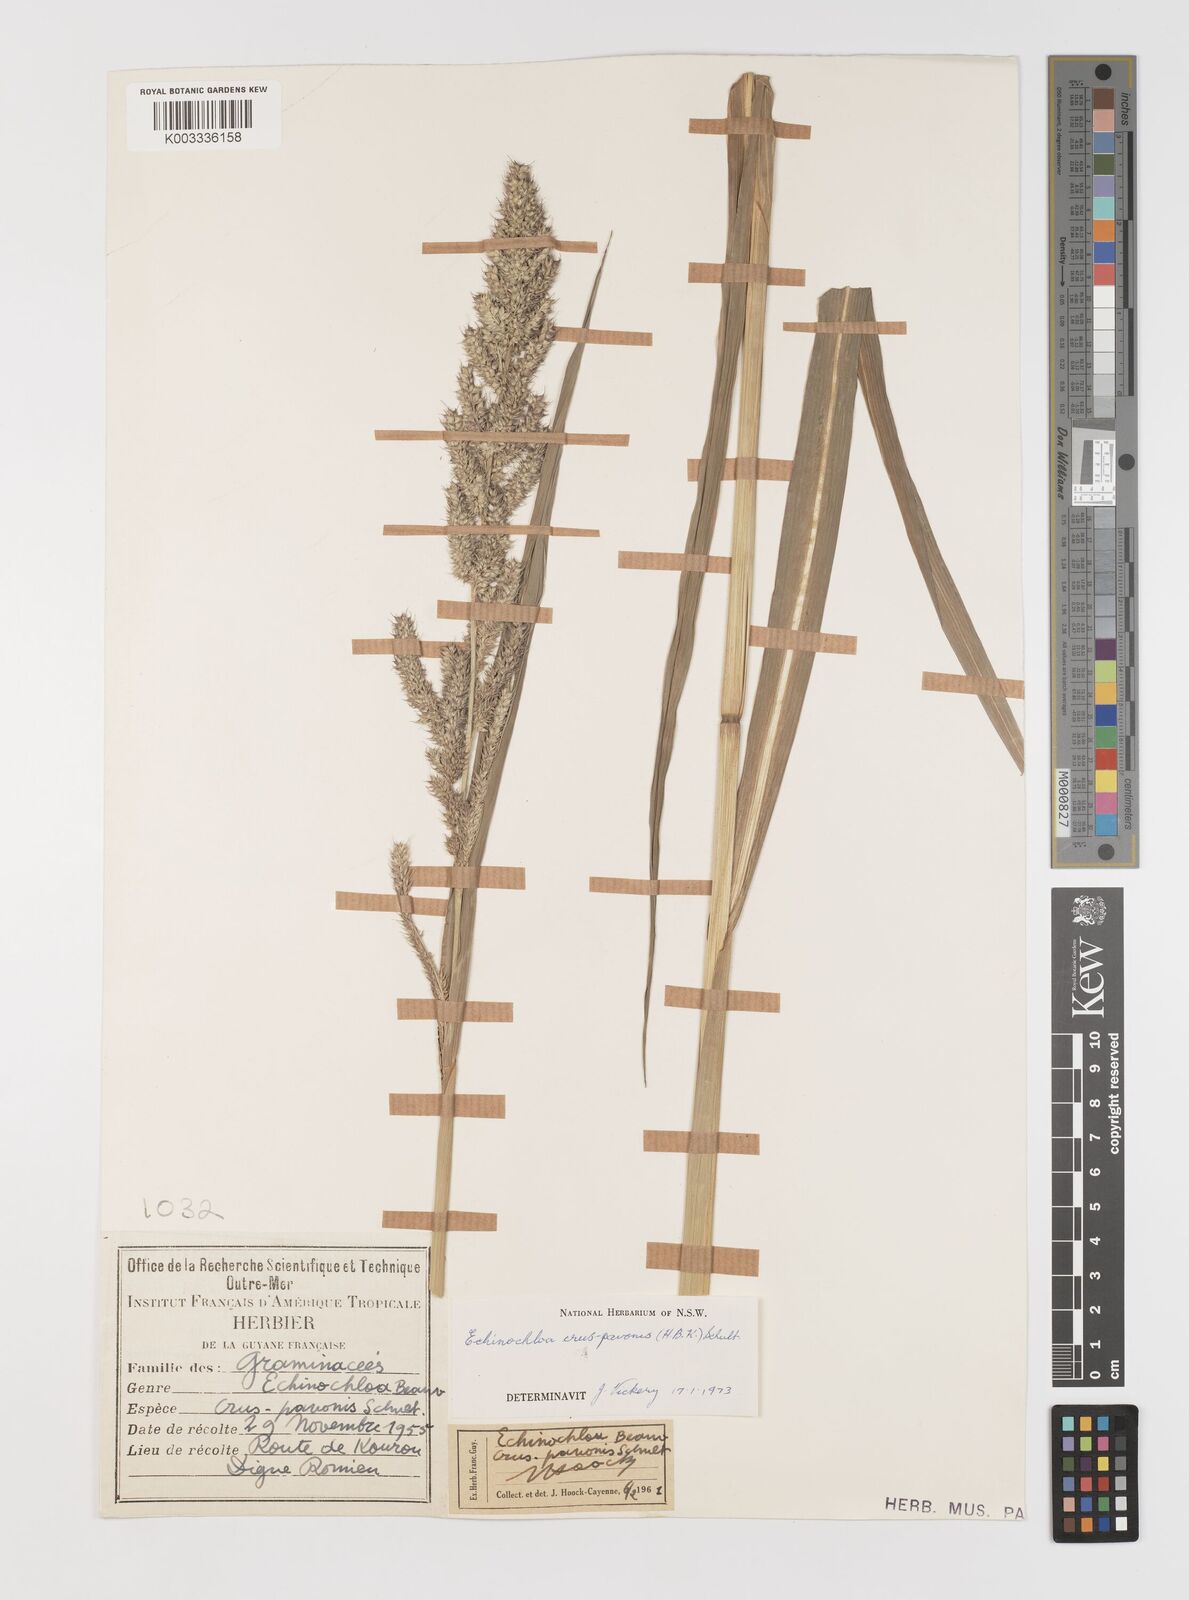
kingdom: Plantae
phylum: Tracheophyta
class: Liliopsida
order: Poales
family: Poaceae
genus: Echinochloa
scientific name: Echinochloa crus-pavonis
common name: Gulf cockspur grass
